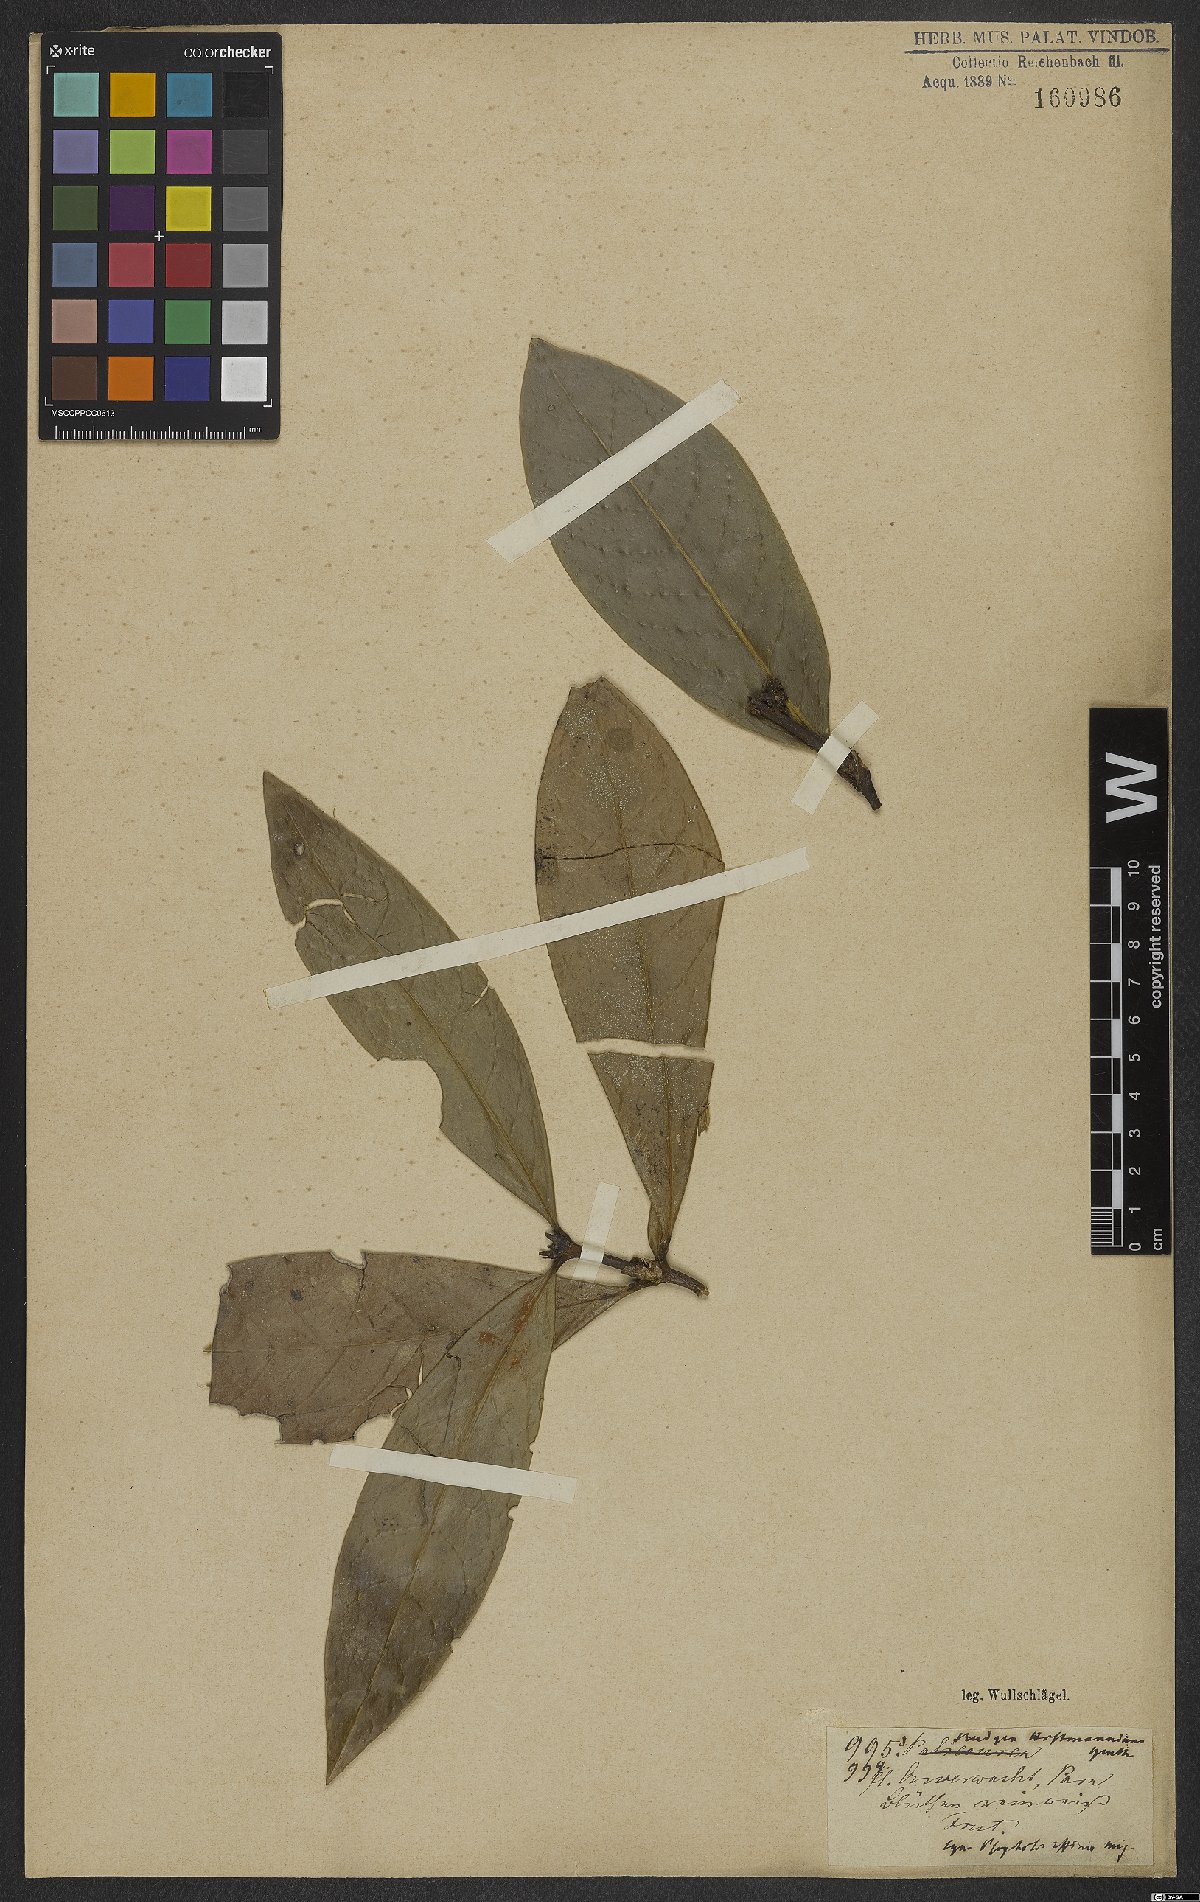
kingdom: Plantae
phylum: Tracheophyta
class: Magnoliopsida
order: Gentianales
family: Rubiaceae
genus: Rudgea
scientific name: Rudgea hostmanniana
